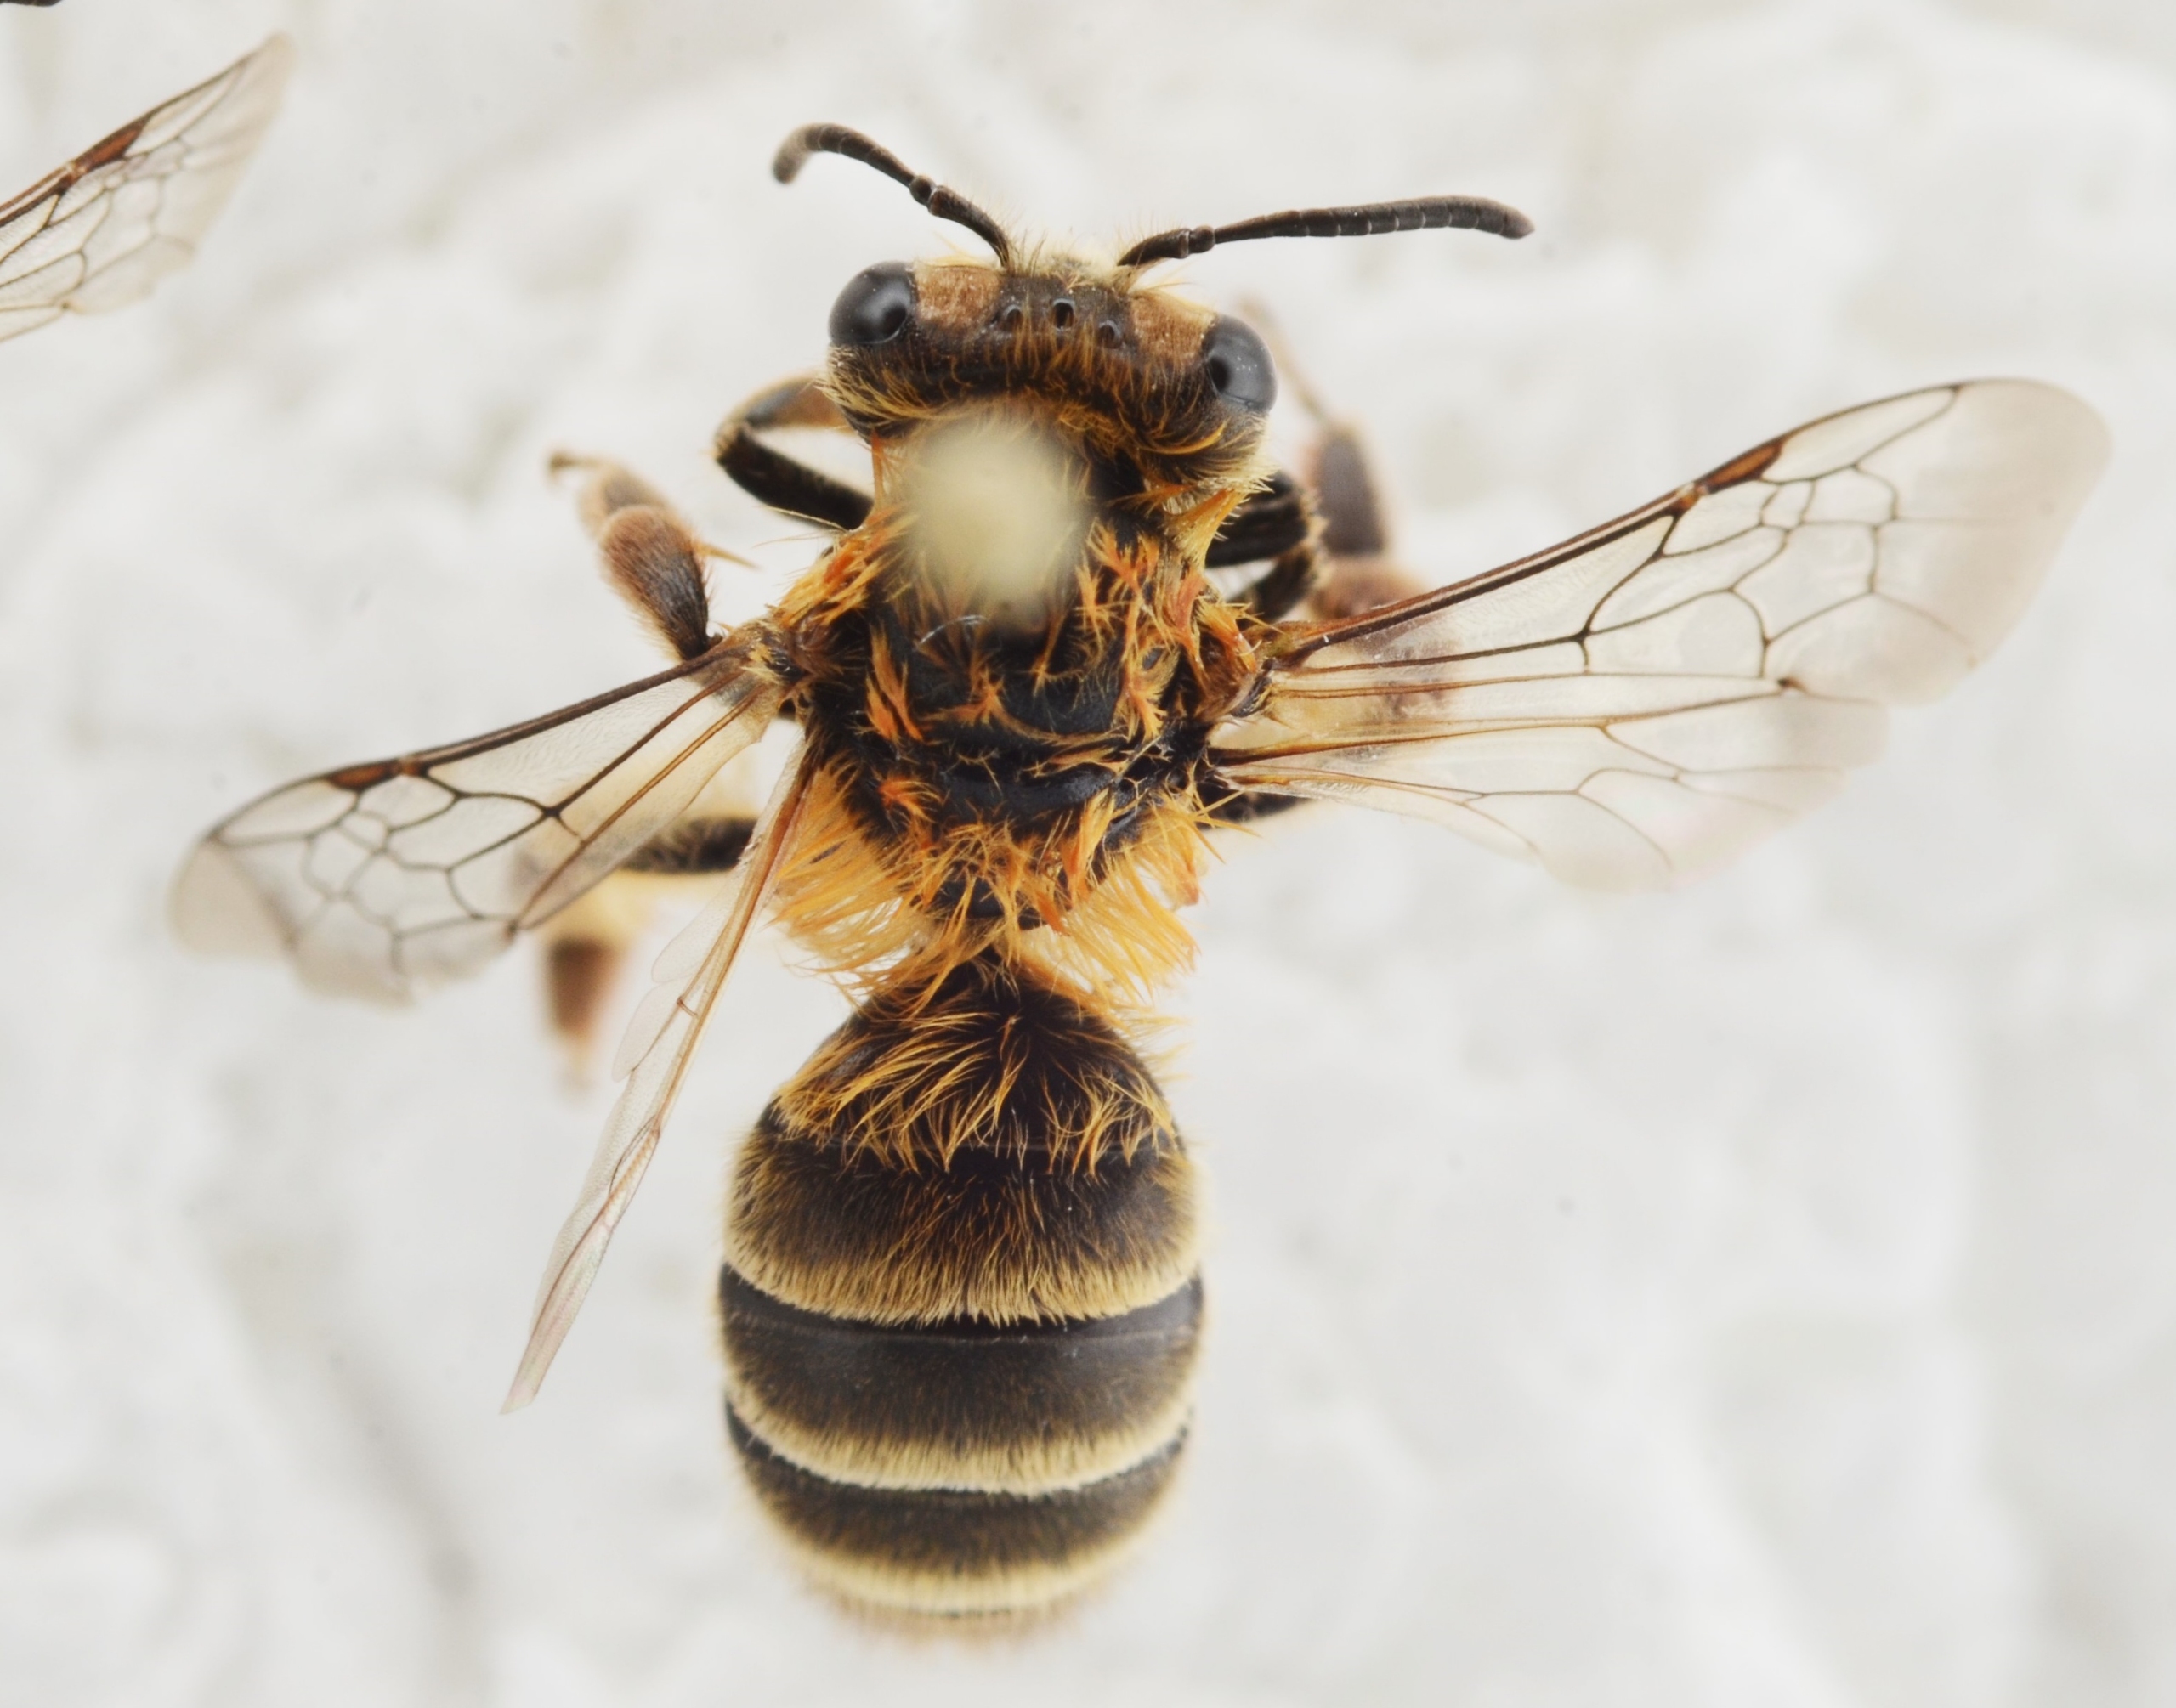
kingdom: Animalia
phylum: Arthropoda
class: Insecta
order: Hymenoptera
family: Andrenidae
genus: Andrena
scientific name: Andrena fuscipes
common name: Lyngjordbi
